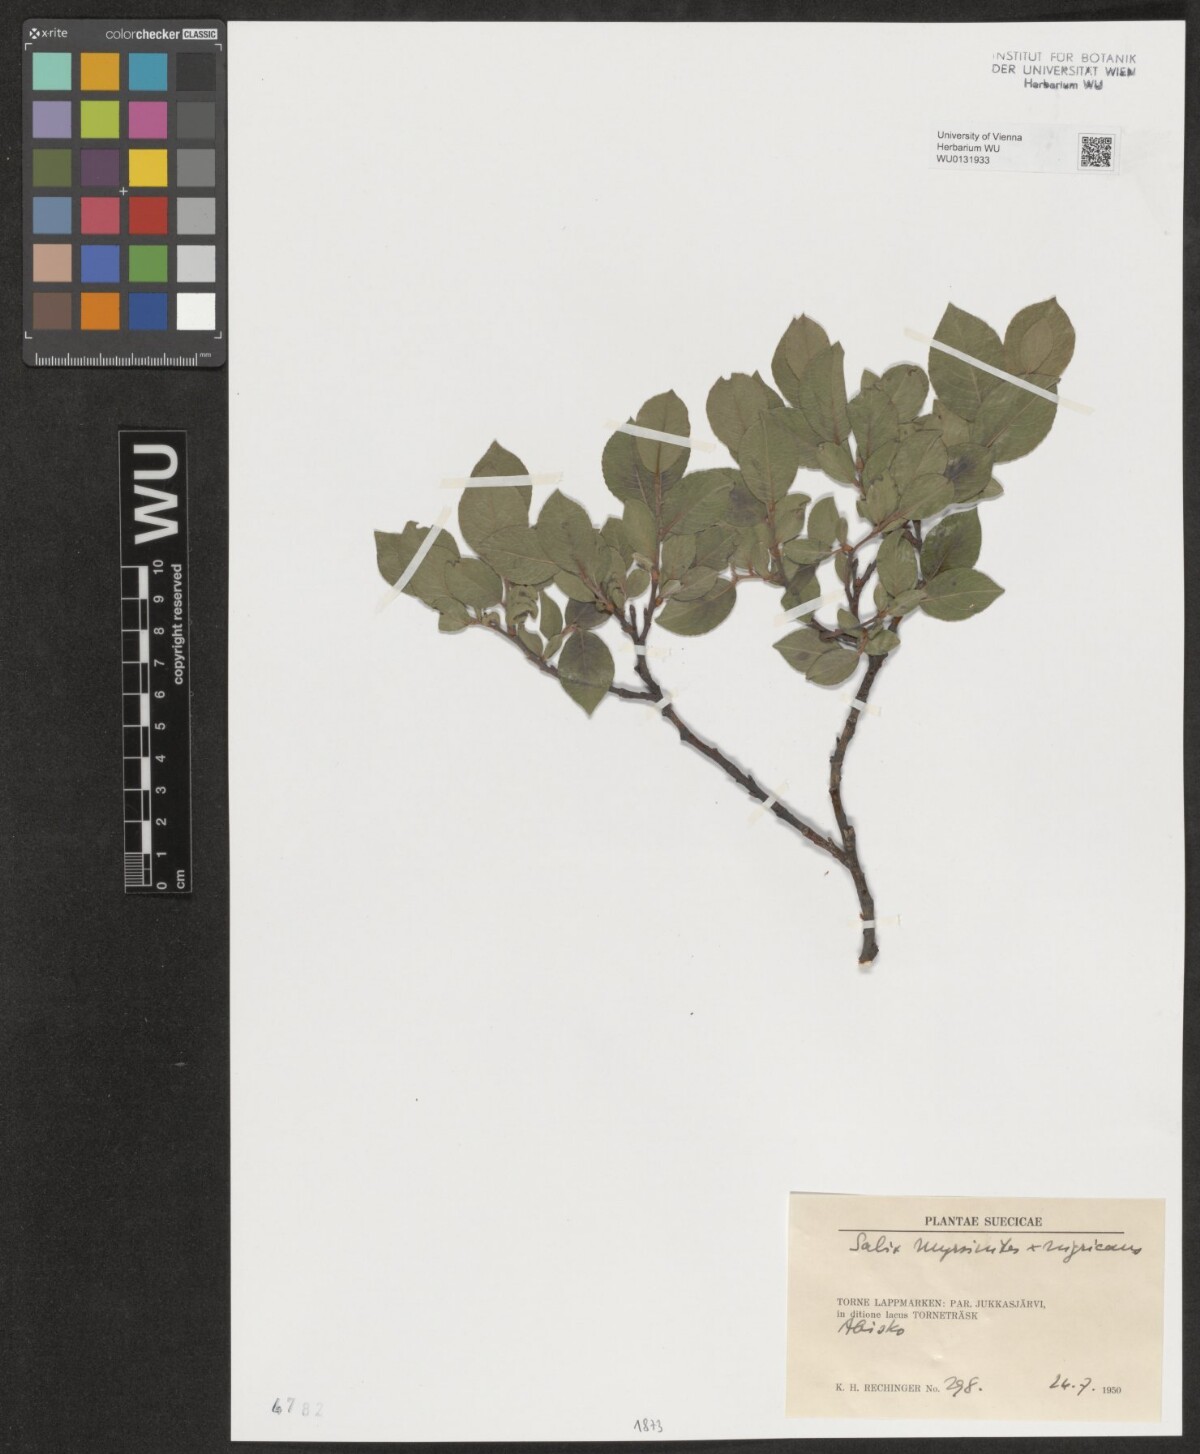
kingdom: Plantae
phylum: Tracheophyta
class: Magnoliopsida
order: Malpighiales
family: Salicaceae
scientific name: Salicaceae
